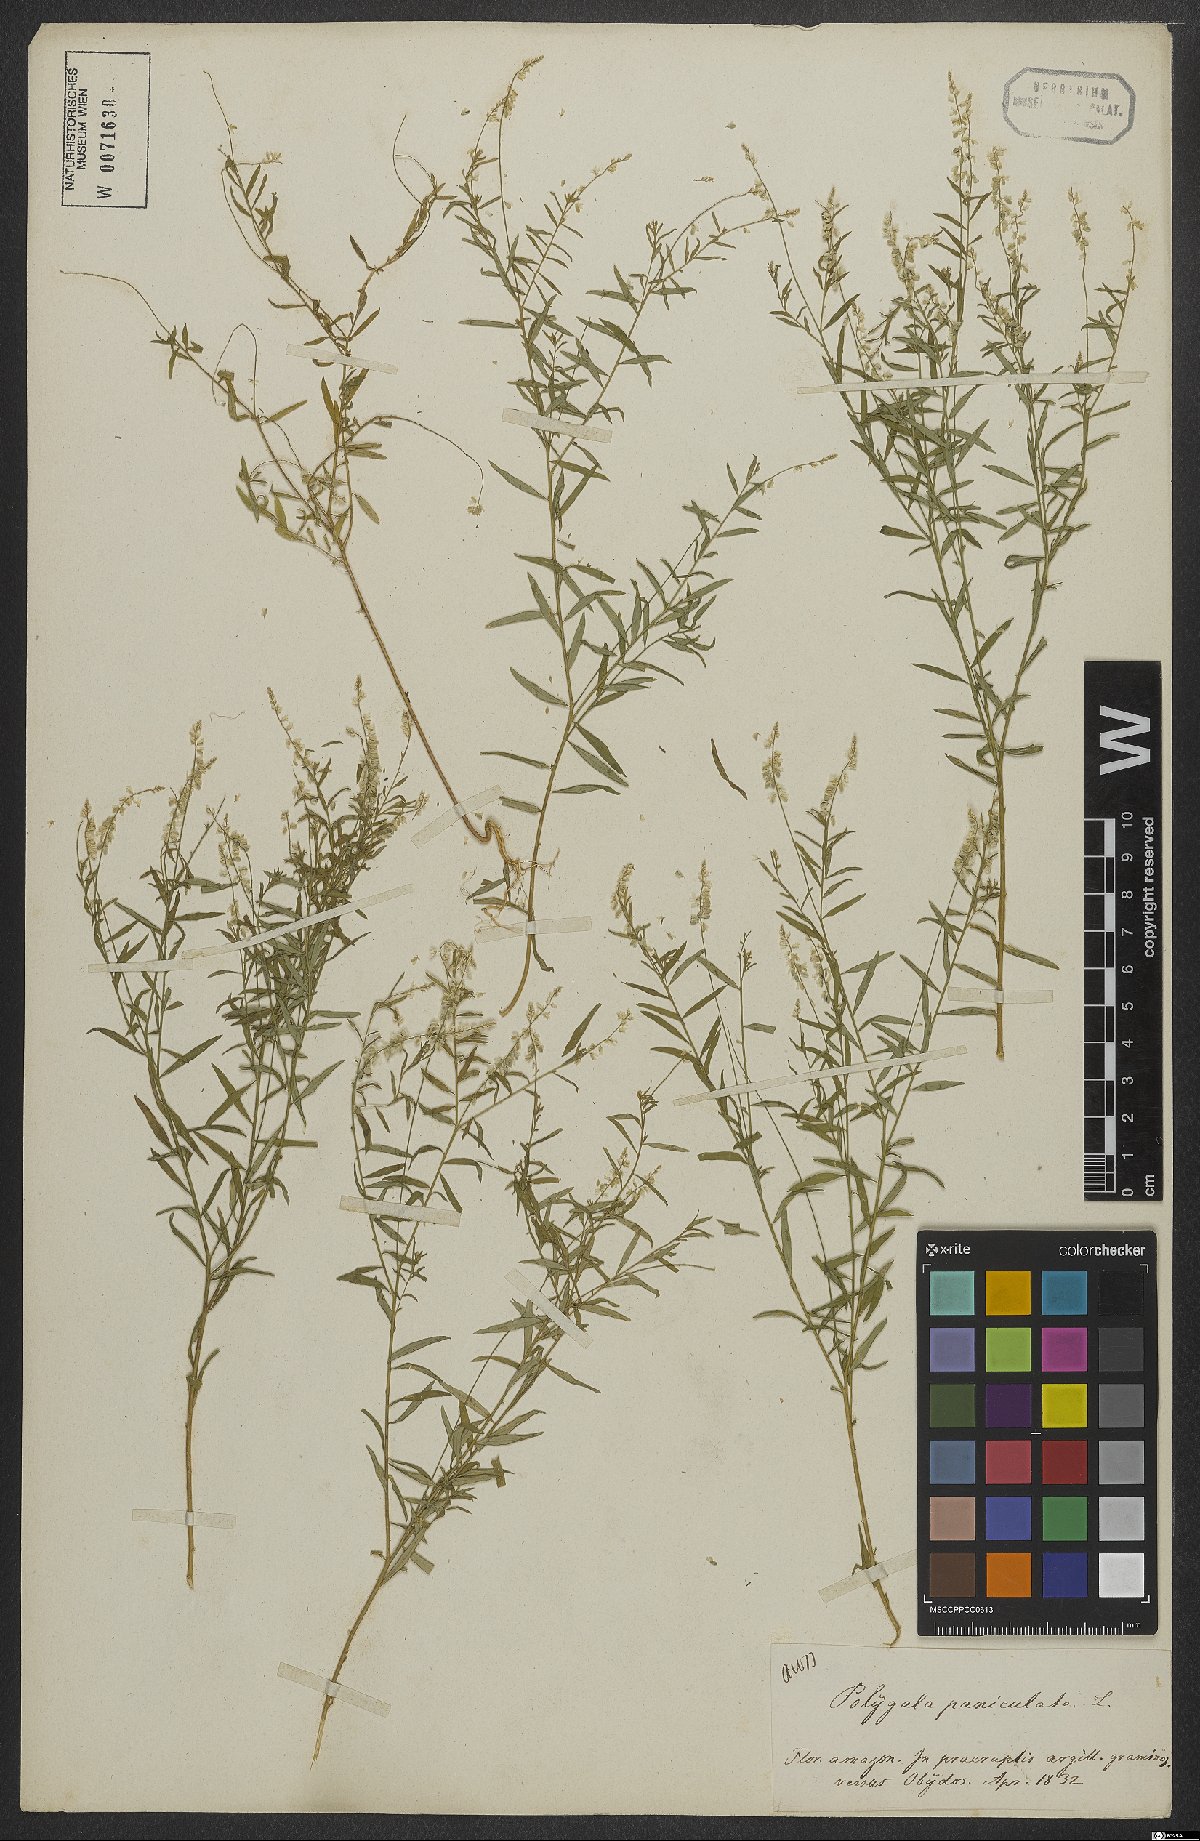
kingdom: Plantae
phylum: Tracheophyta
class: Magnoliopsida
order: Fabales
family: Polygalaceae
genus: Polygala
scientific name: Polygala exilis
